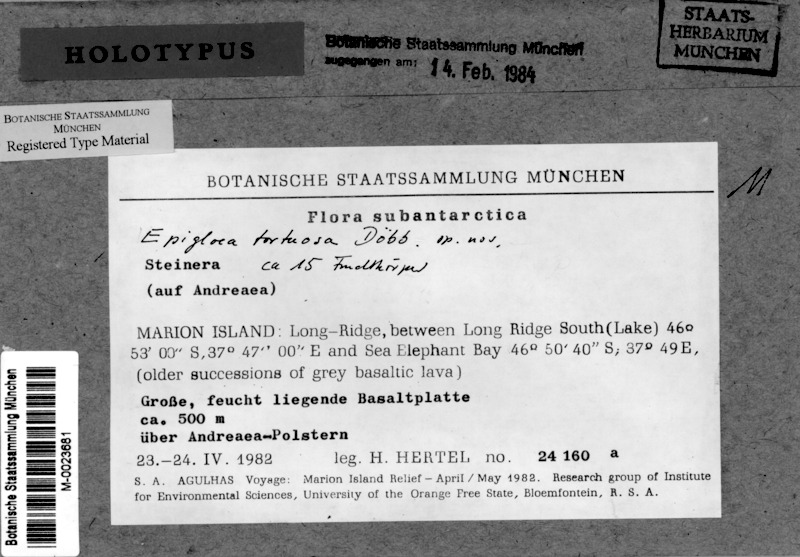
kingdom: Fungi
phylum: Ascomycota
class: Lecanoromycetes
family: Epigloeaceae
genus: Epigloea
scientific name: Epigloea tortuosa
